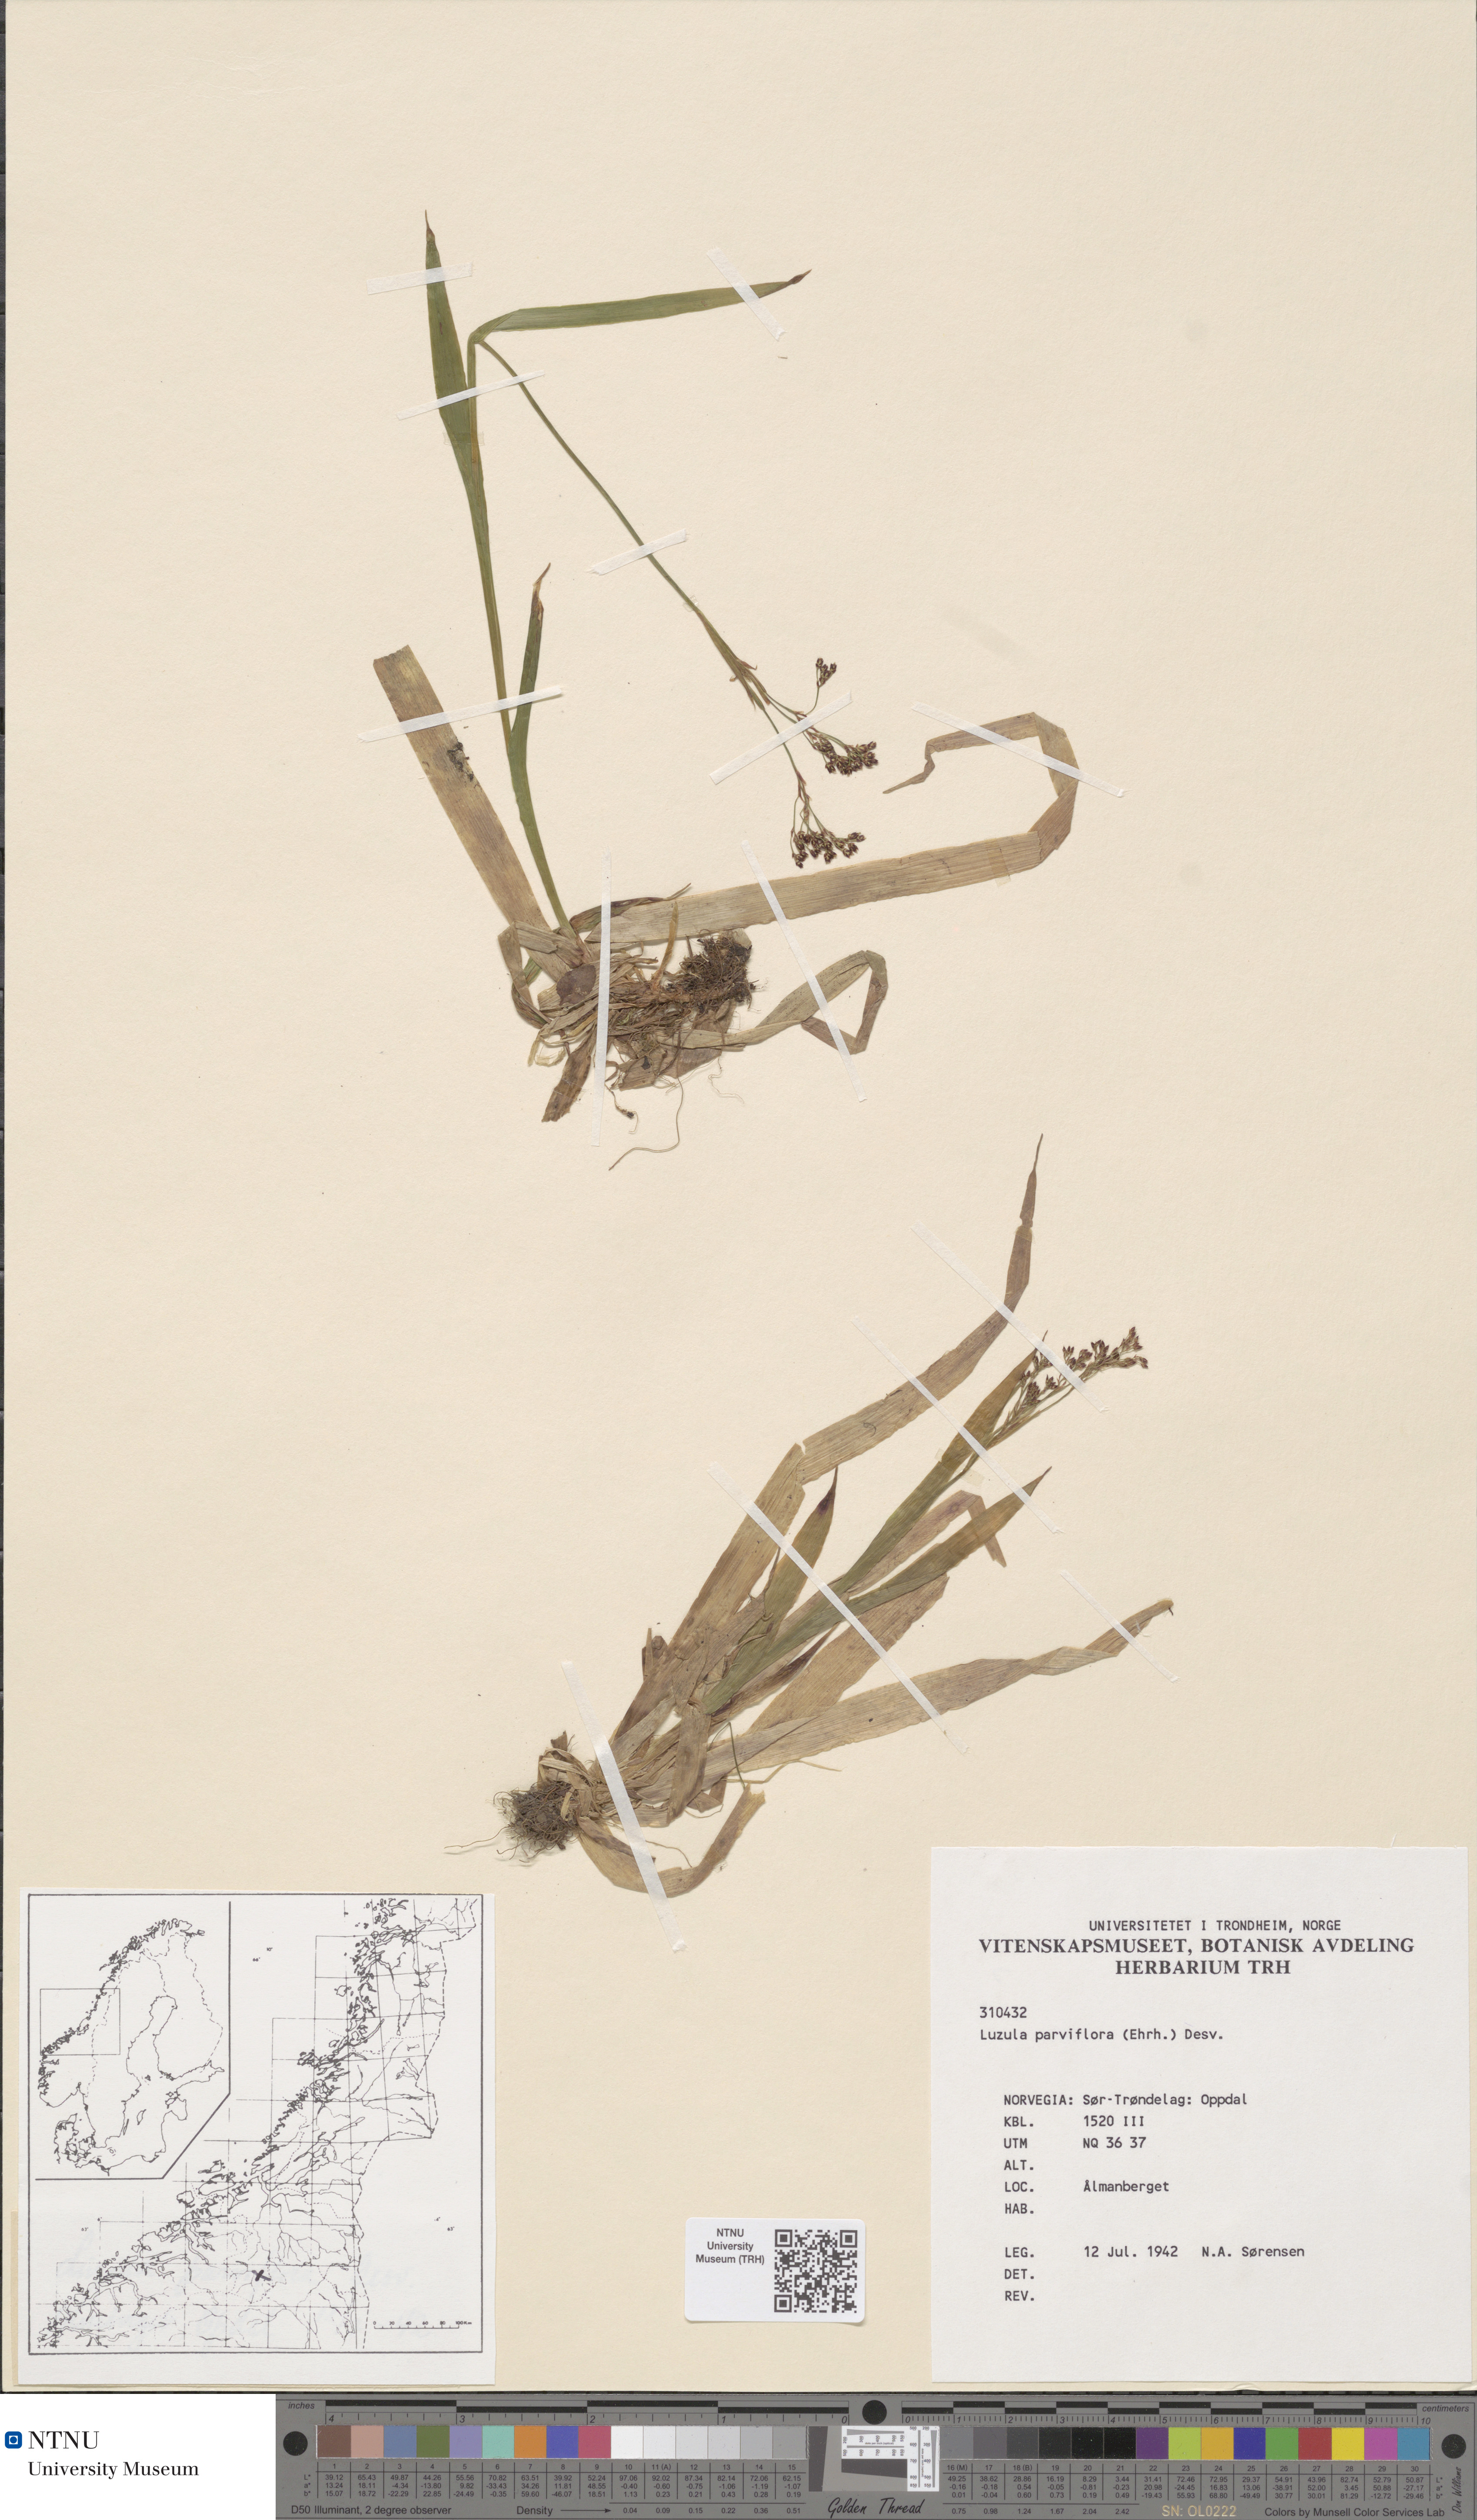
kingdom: Plantae
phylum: Tracheophyta
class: Liliopsida
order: Poales
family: Juncaceae
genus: Luzula
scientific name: Luzula parviflora
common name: Millet woodrush
